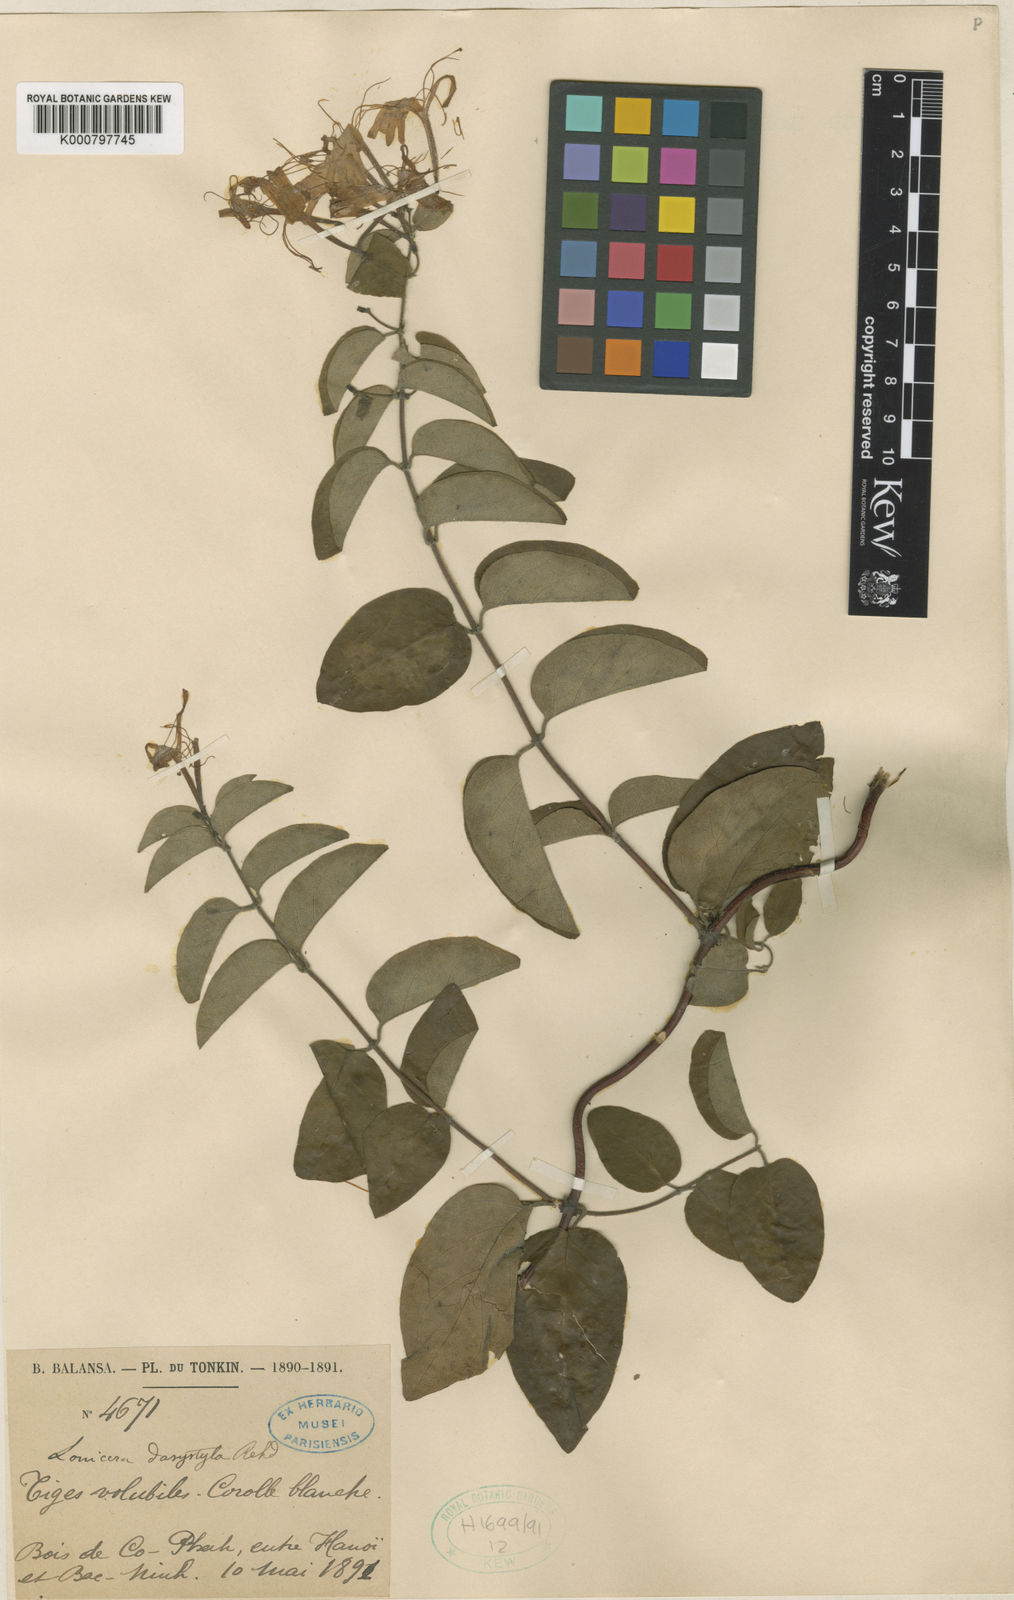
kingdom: Plantae
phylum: Tracheophyta
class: Magnoliopsida
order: Dipsacales
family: Caprifoliaceae
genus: Lonicera
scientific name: Lonicera confusa
